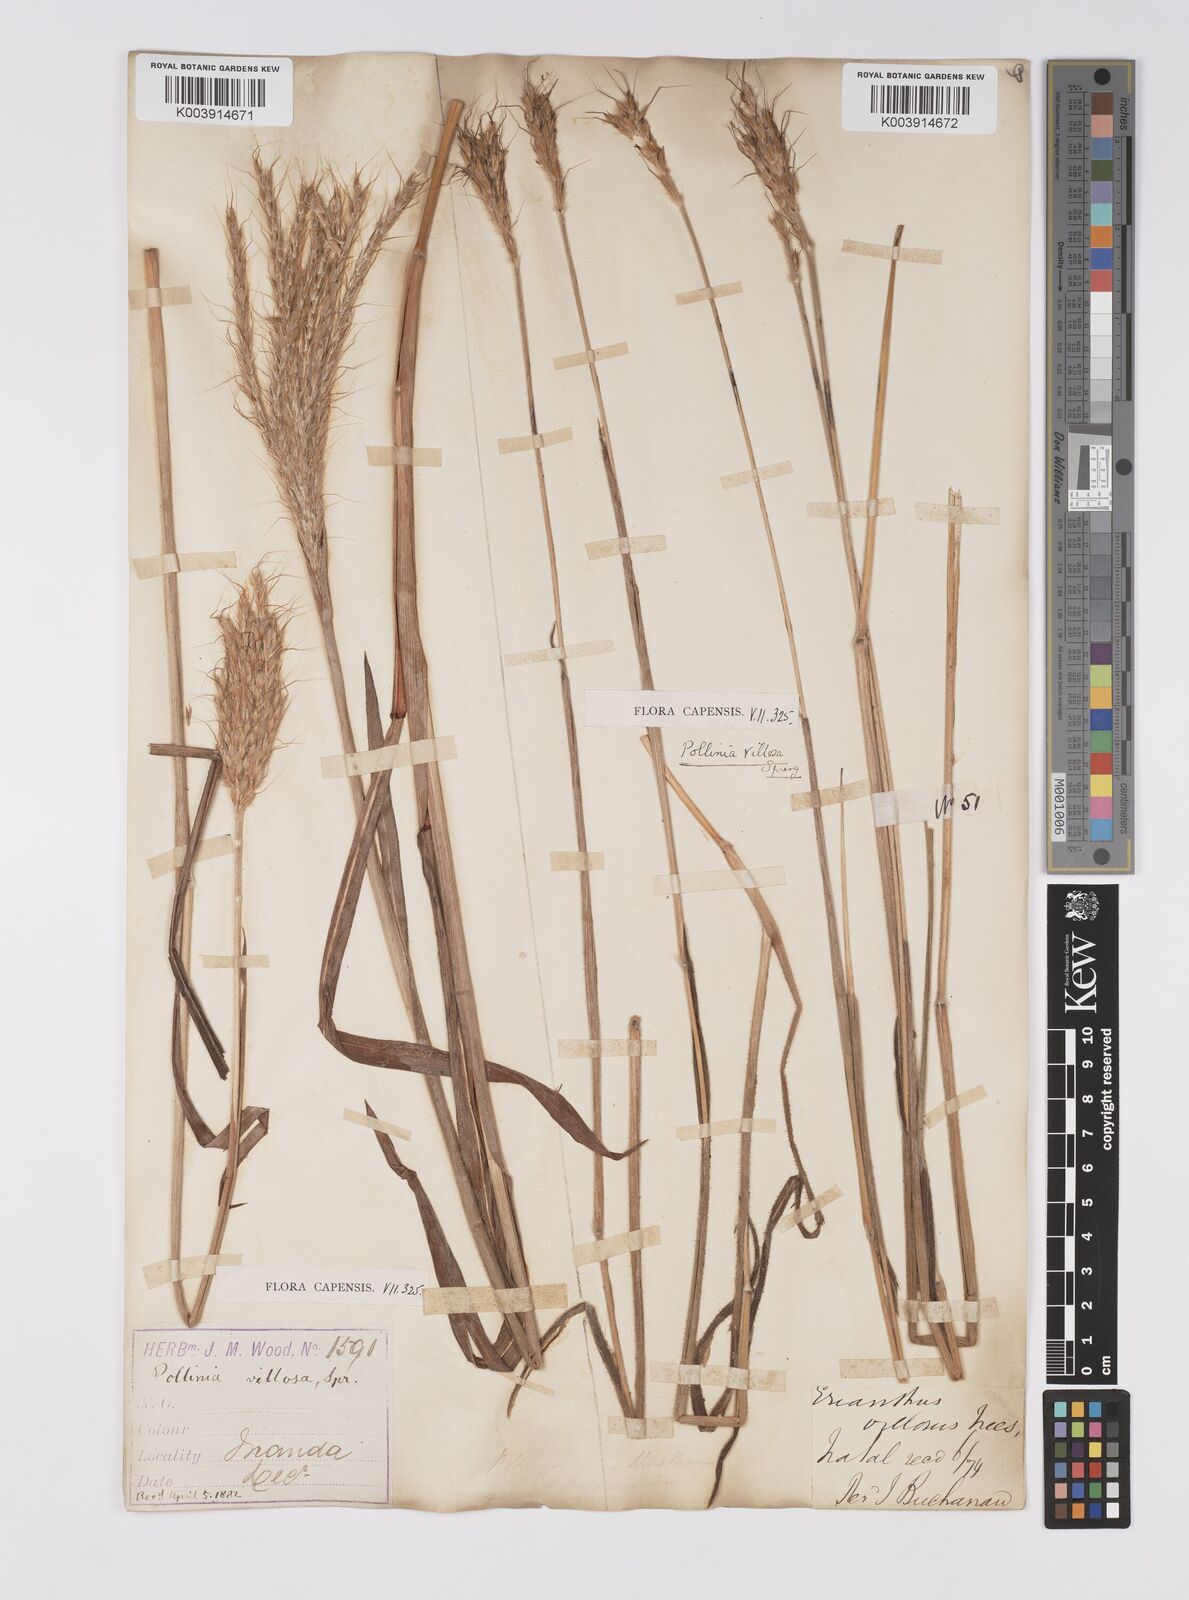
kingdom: Plantae
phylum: Tracheophyta
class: Liliopsida
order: Poales
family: Poaceae
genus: Eulalia
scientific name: Eulalia villosa
